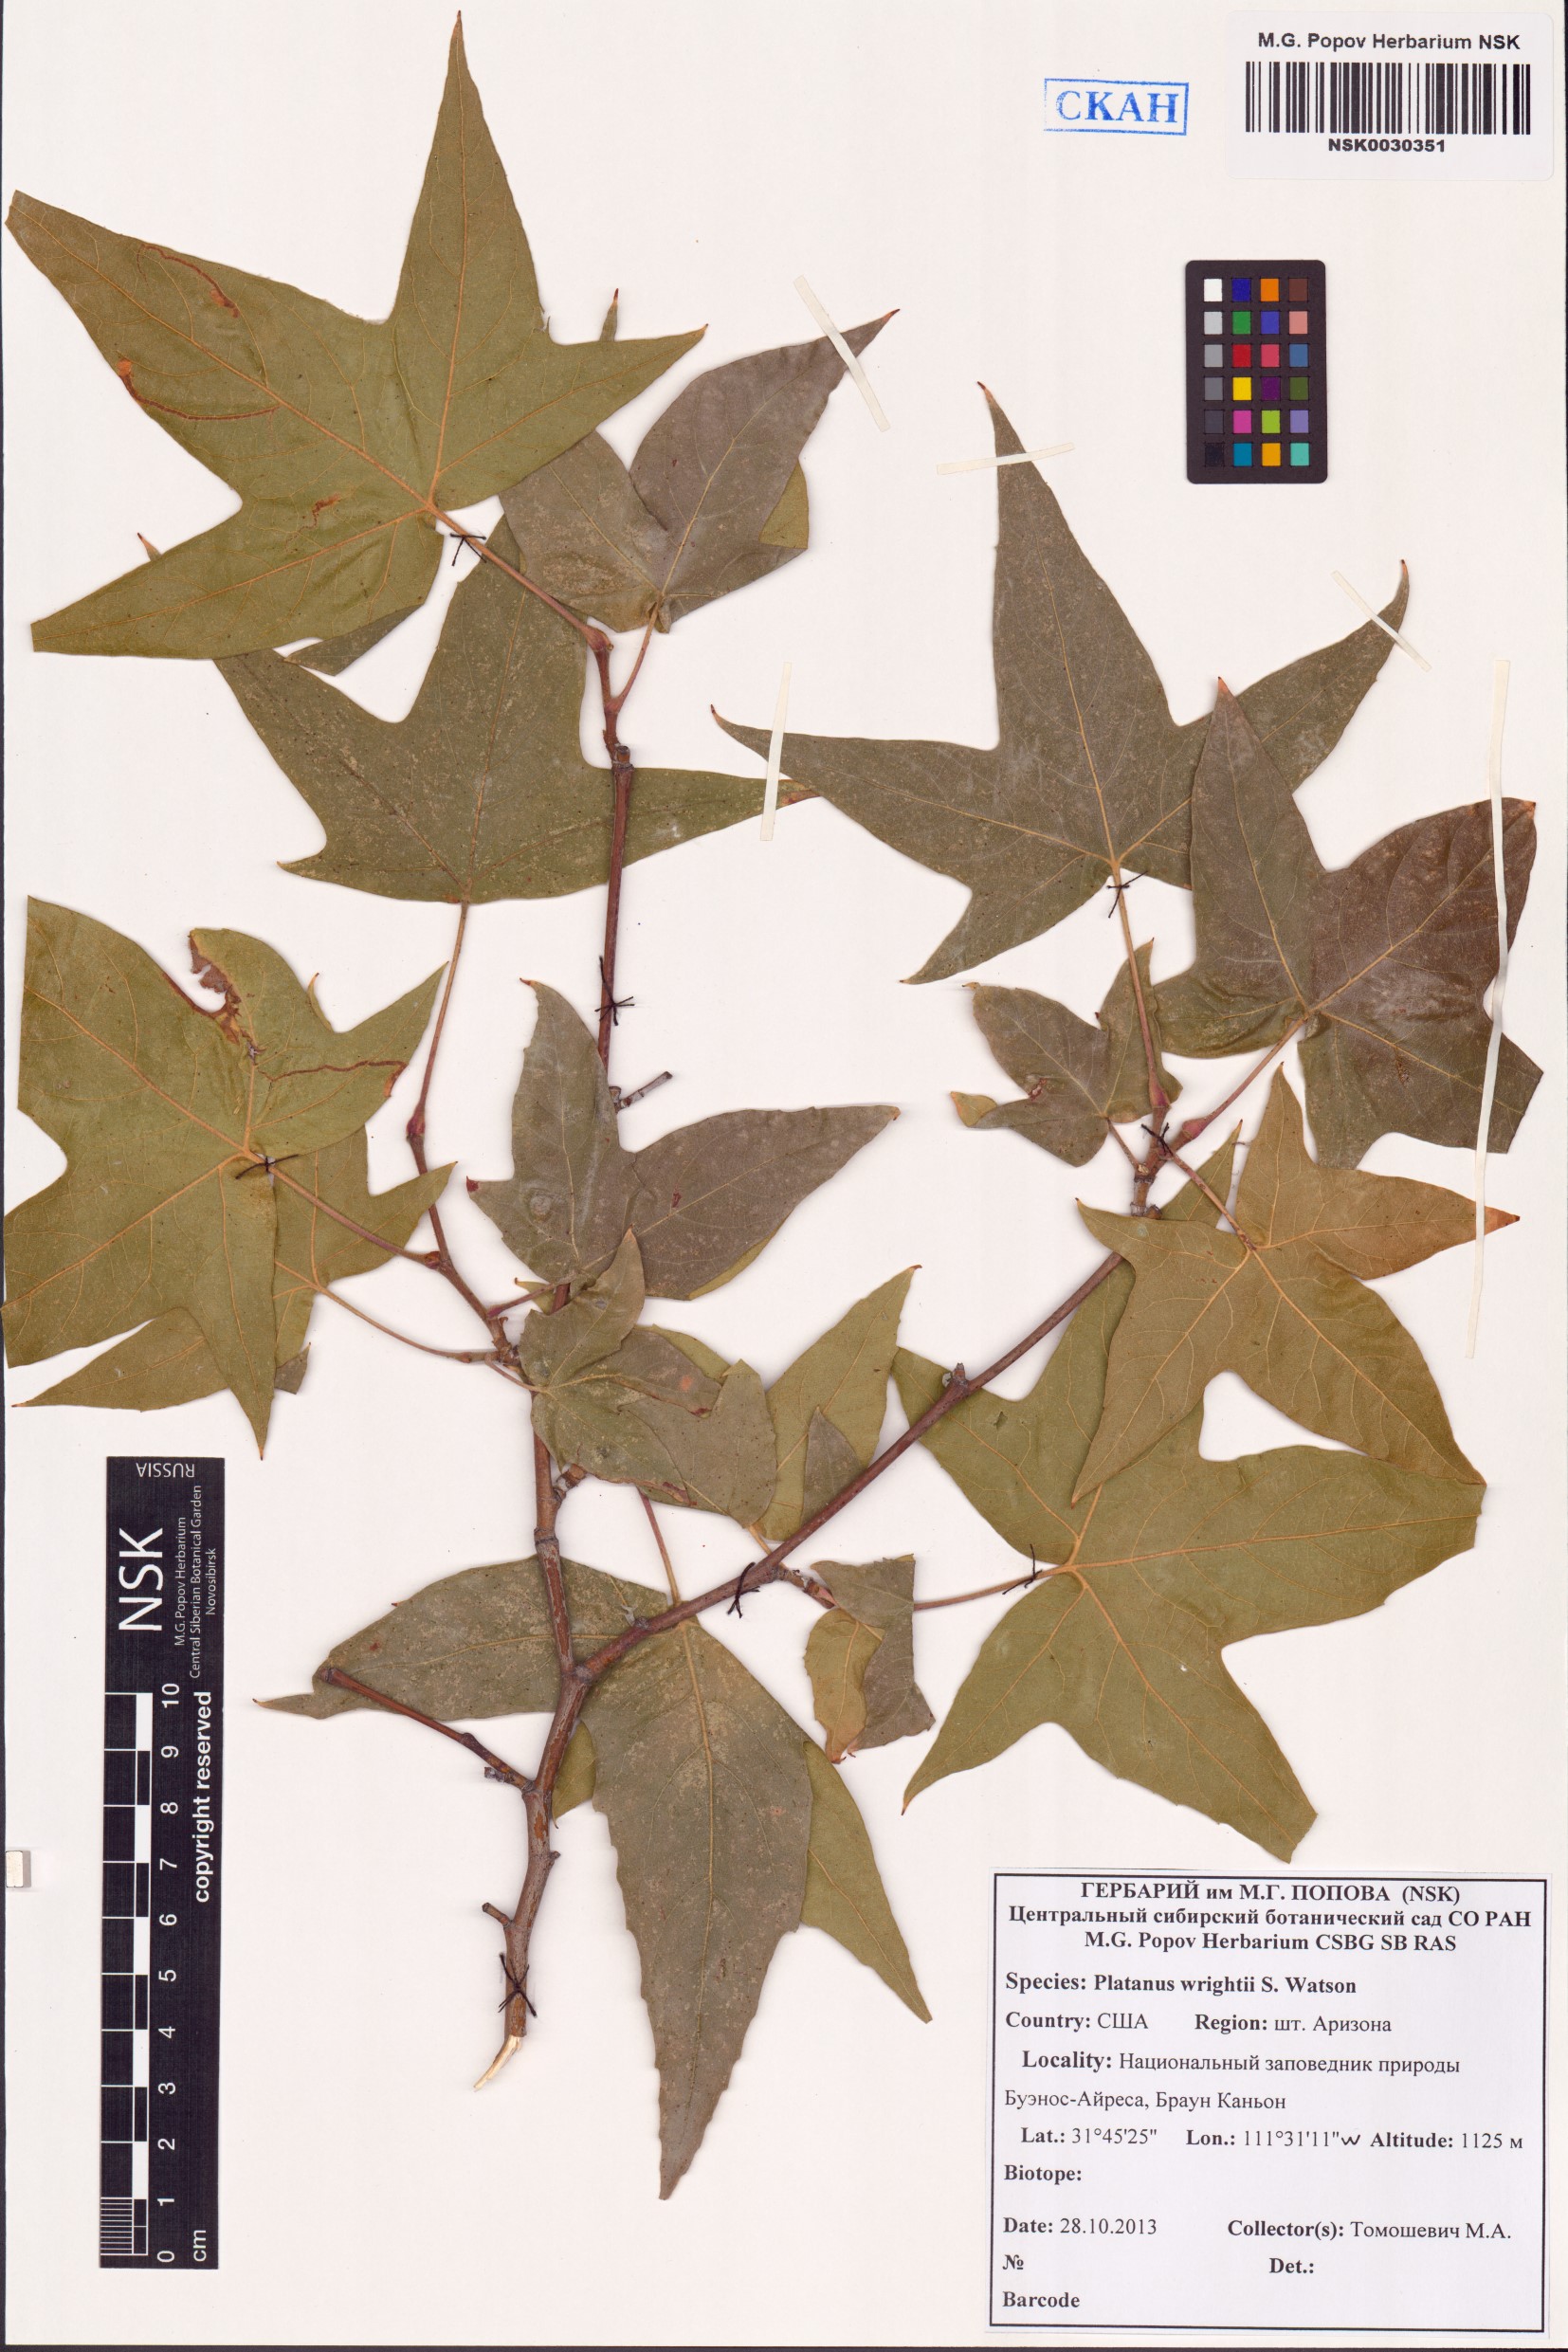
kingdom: Plantae
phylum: Tracheophyta
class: Magnoliopsida
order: Proteales
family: Platanaceae
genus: Platanus
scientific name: Platanus wrightii
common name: Arizona sycamore
